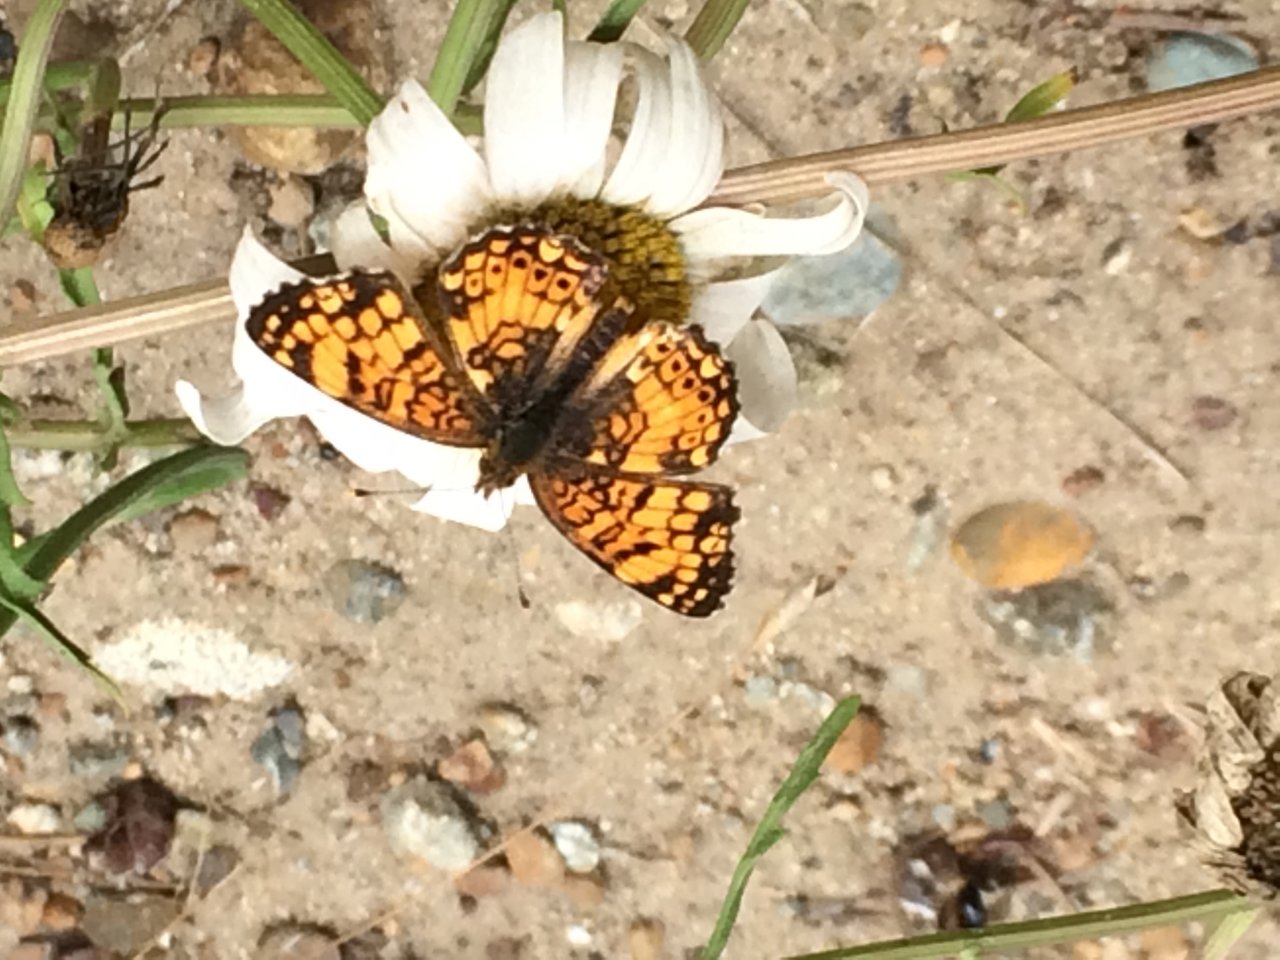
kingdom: Animalia
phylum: Arthropoda
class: Insecta
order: Lepidoptera
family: Nymphalidae
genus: Eresia
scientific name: Eresia aveyrona
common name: Mylitta Crescent
